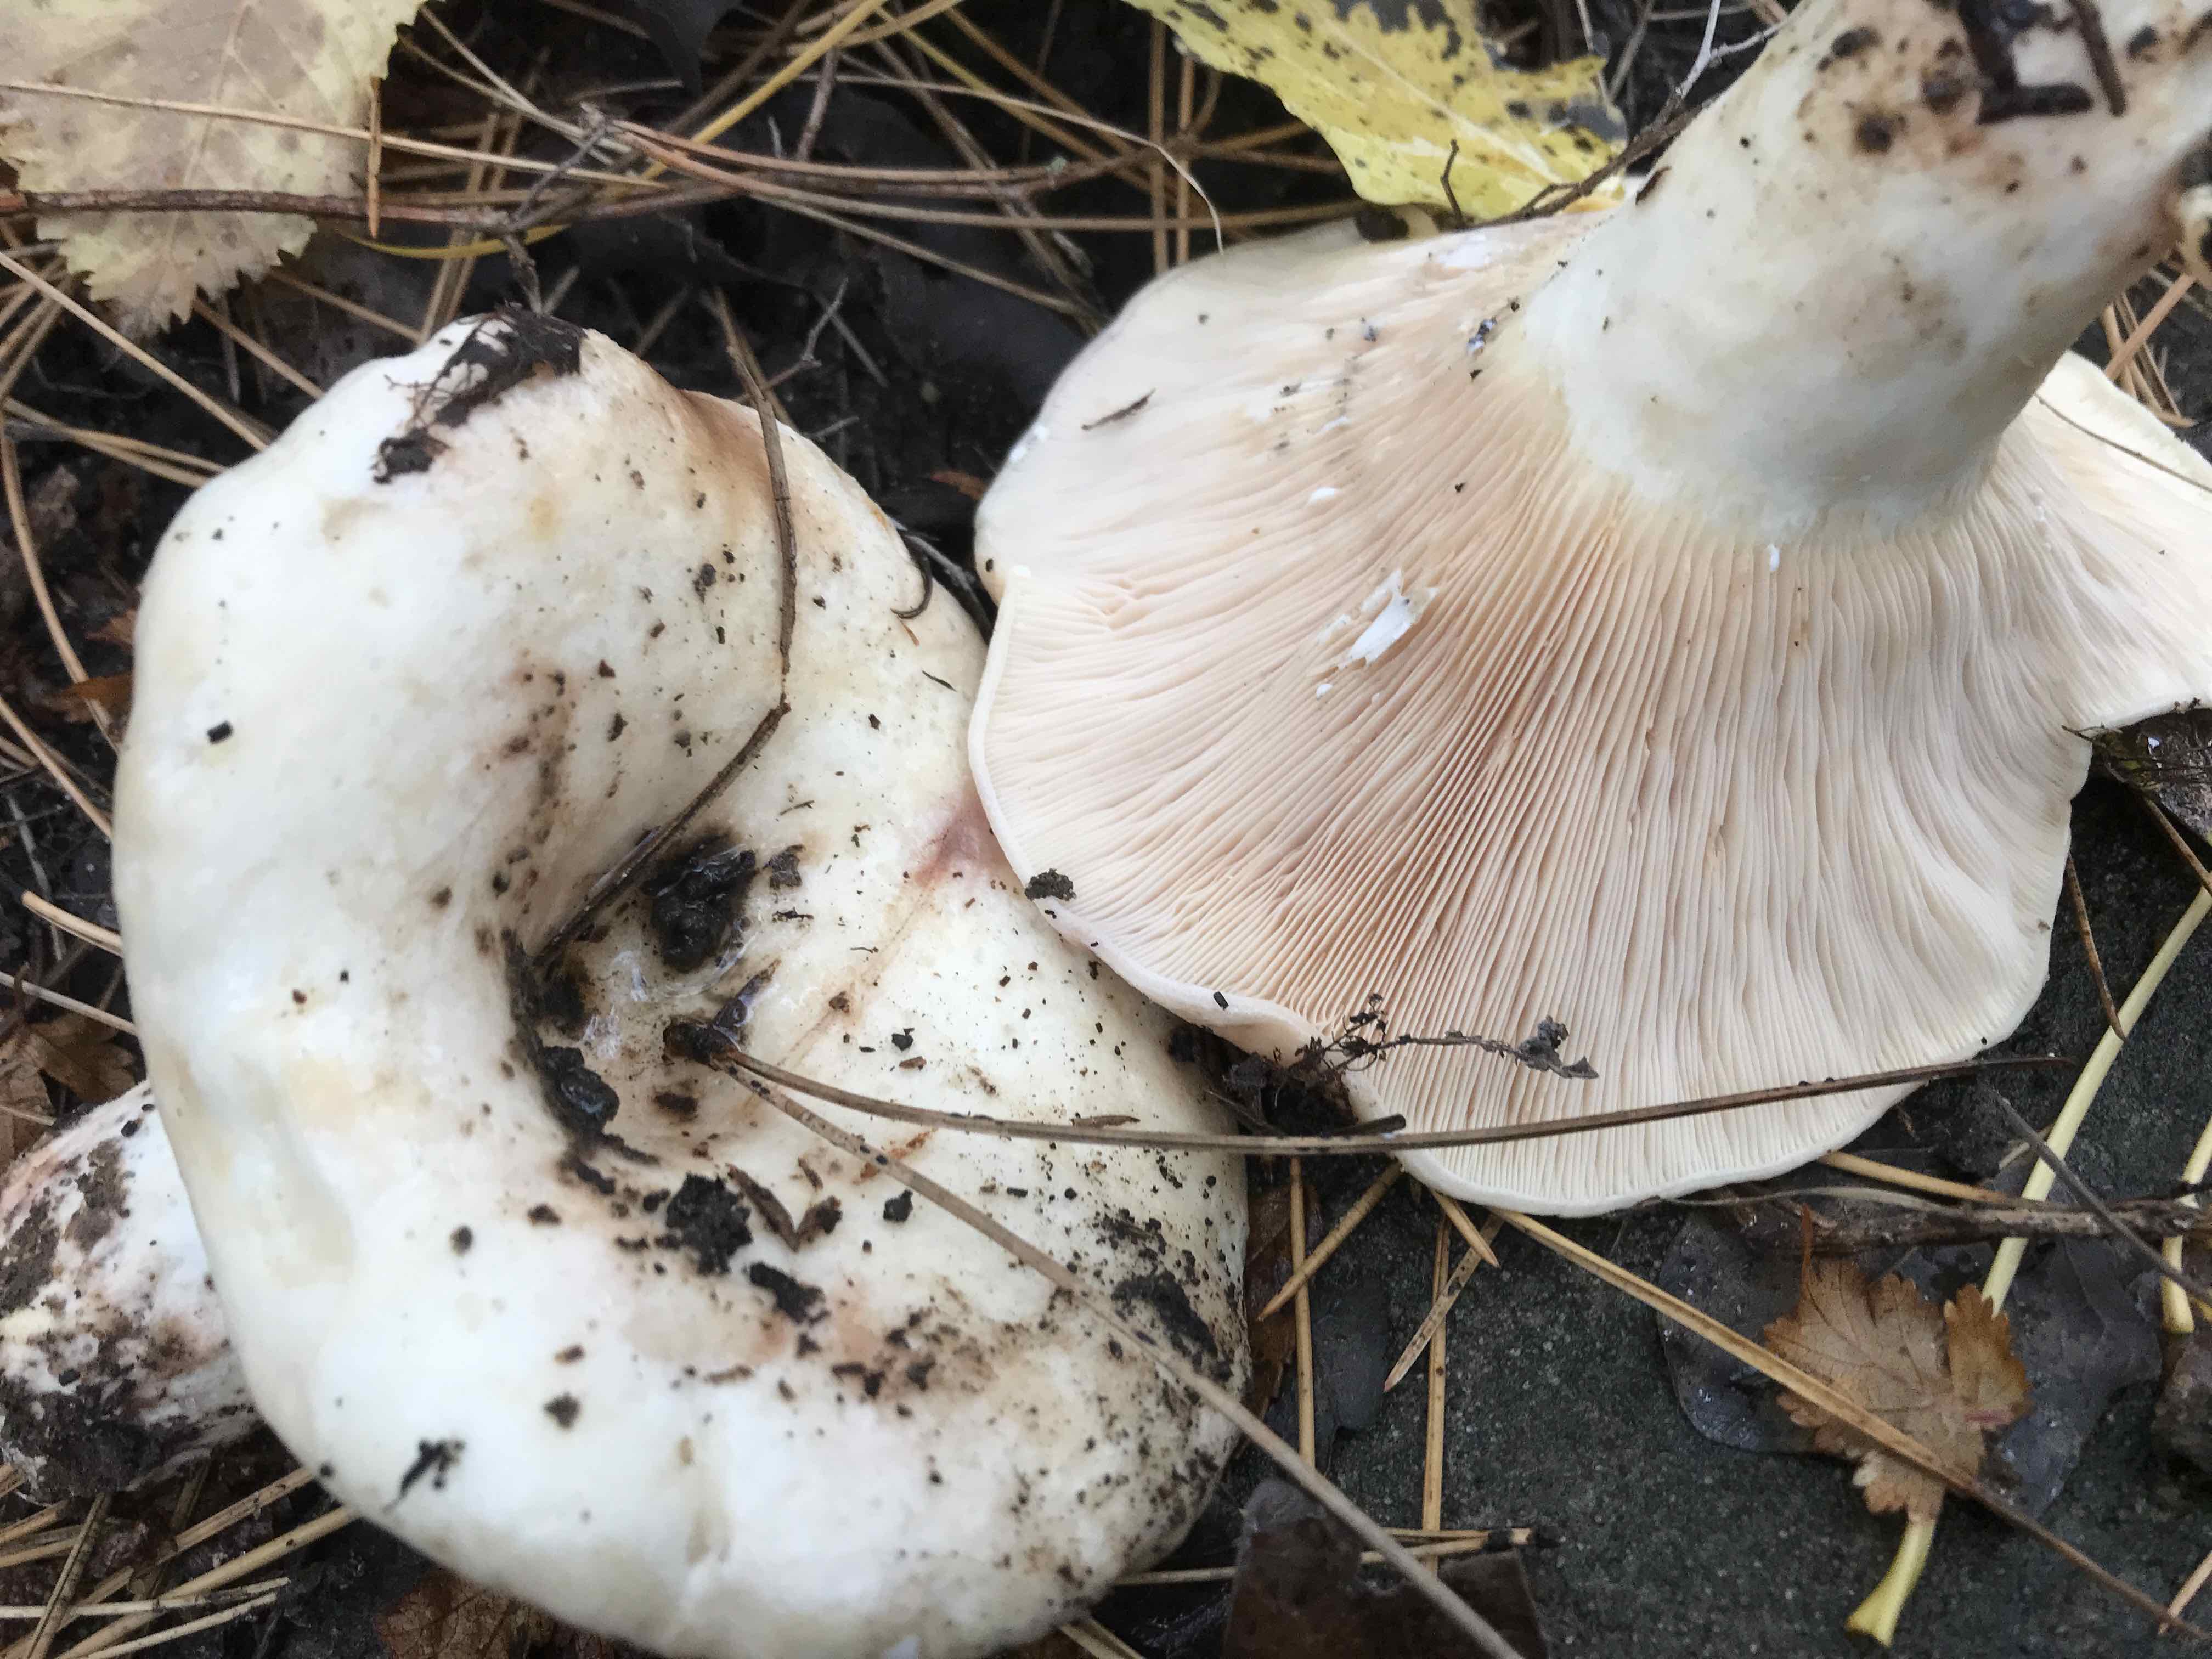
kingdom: Fungi
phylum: Basidiomycota
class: Agaricomycetes
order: Russulales
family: Russulaceae
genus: Lactarius
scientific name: Lactarius controversus
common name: rosabladet mælkehat
